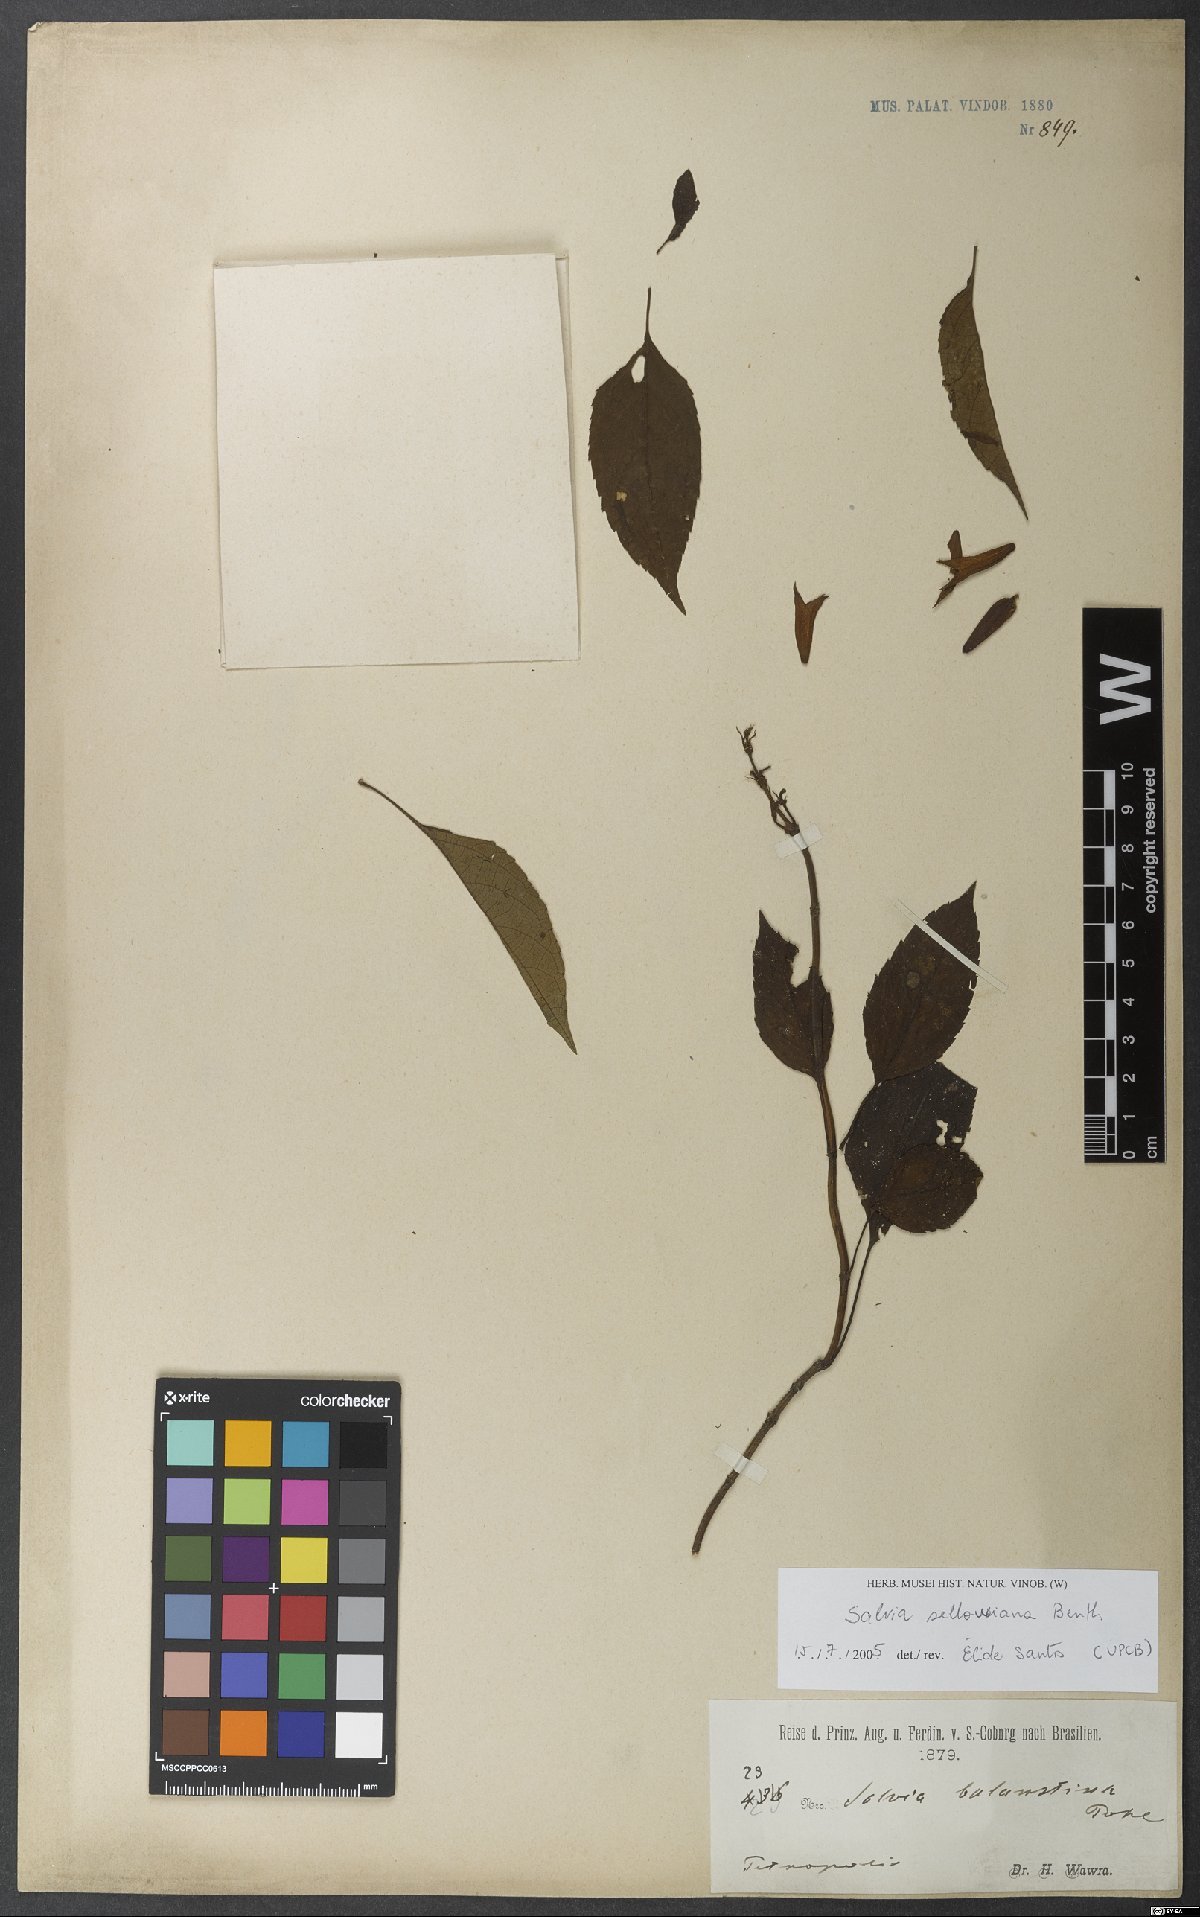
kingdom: Plantae
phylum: Tracheophyta
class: Magnoliopsida
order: Lamiales
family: Lamiaceae
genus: Salvia
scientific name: Salvia sellowiana
